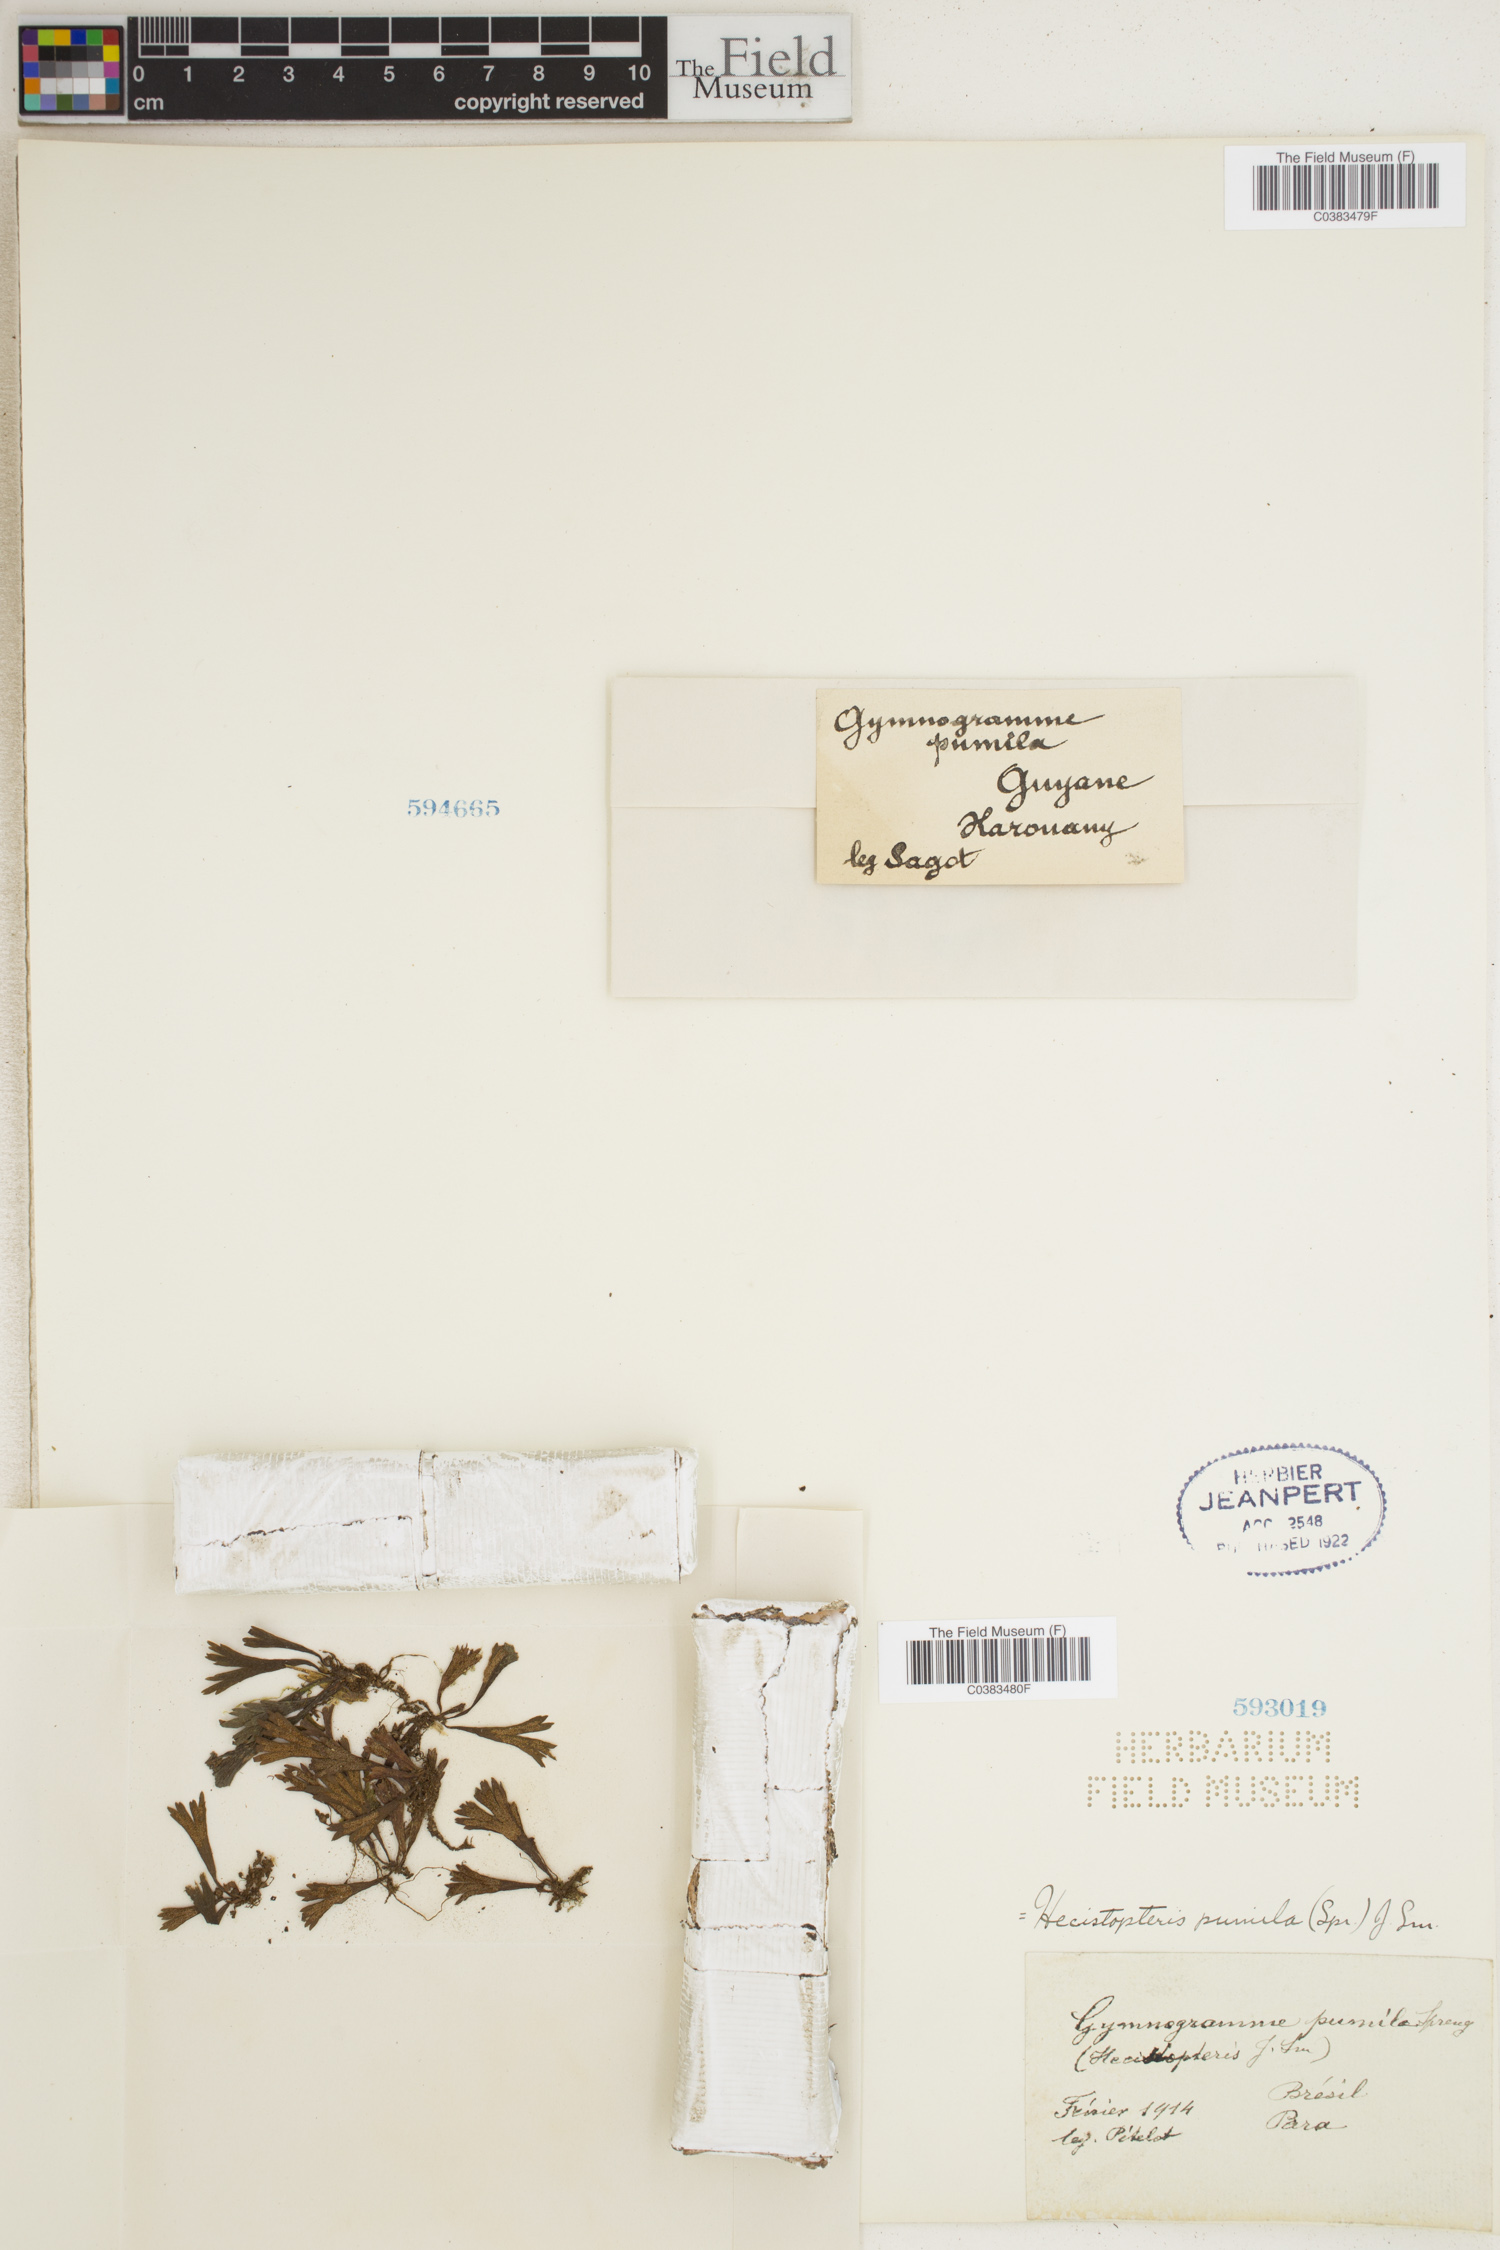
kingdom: Plantae
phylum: Tracheophyta
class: Polypodiopsida
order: Polypodiales
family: Pteridaceae
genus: Hecistopteris
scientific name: Hecistopteris pumila
